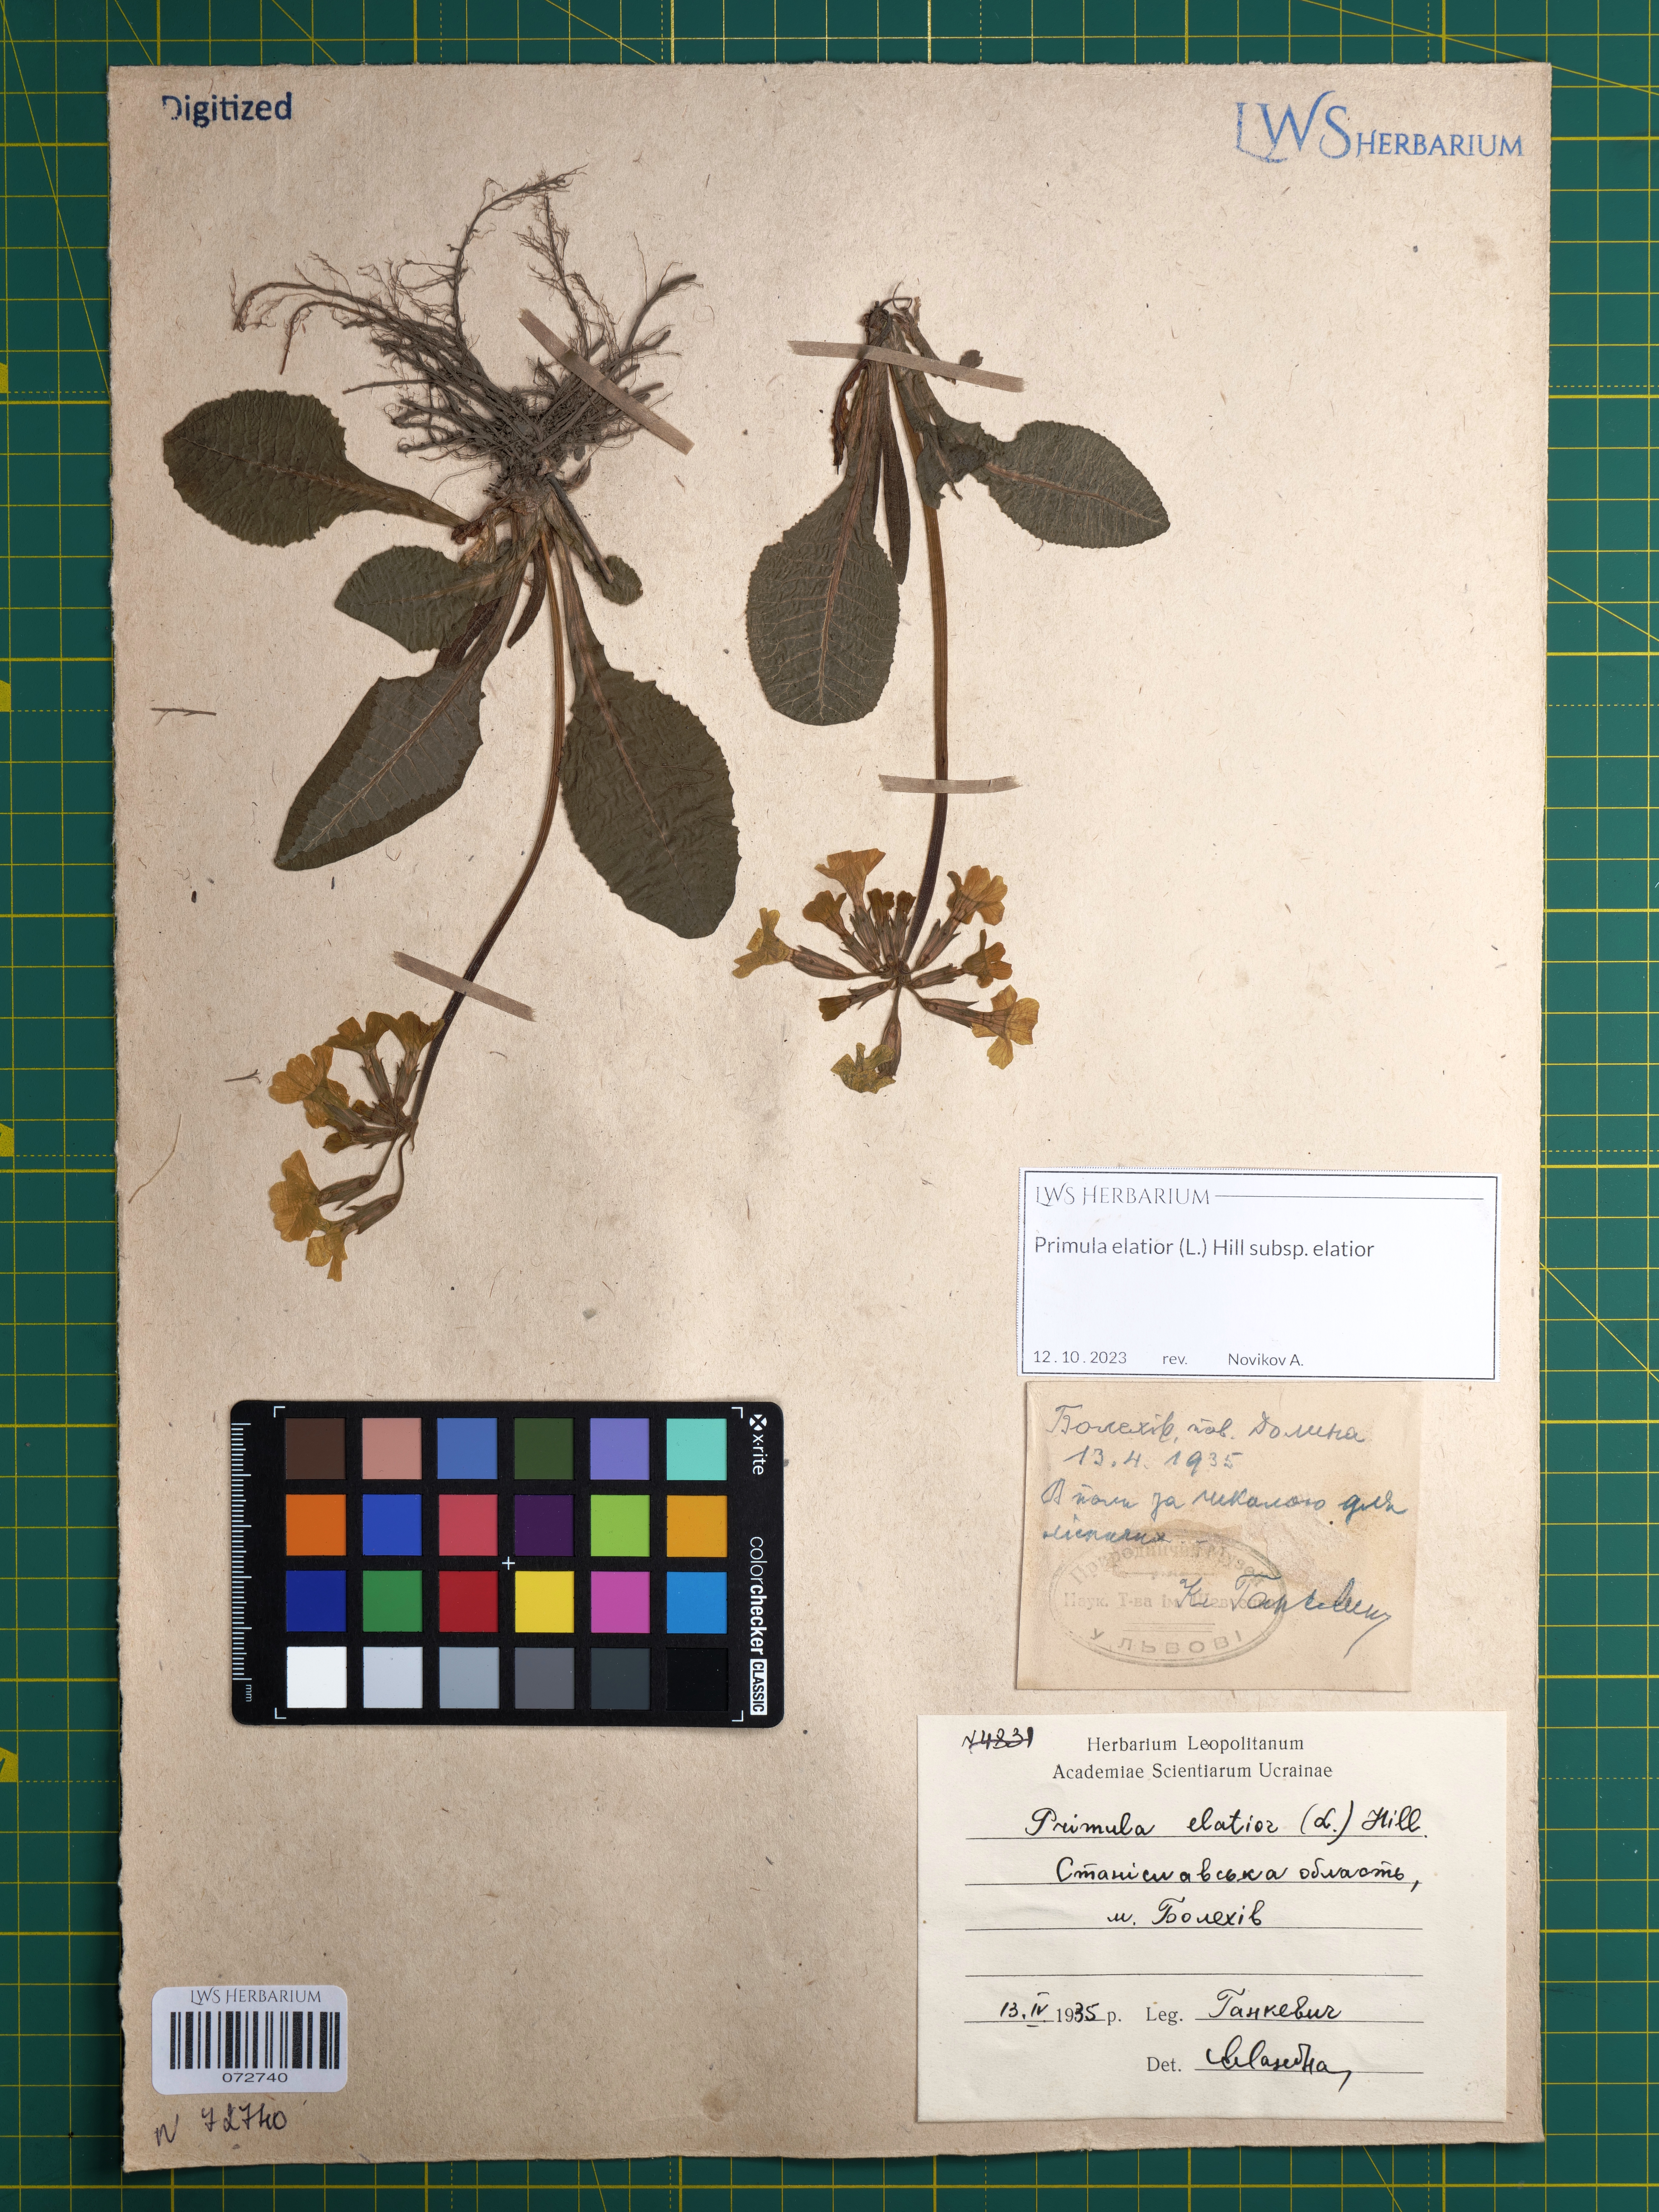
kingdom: Plantae
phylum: Tracheophyta
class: Magnoliopsida
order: Ericales
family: Primulaceae
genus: Primula
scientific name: Primula elatior
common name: Oxlip
